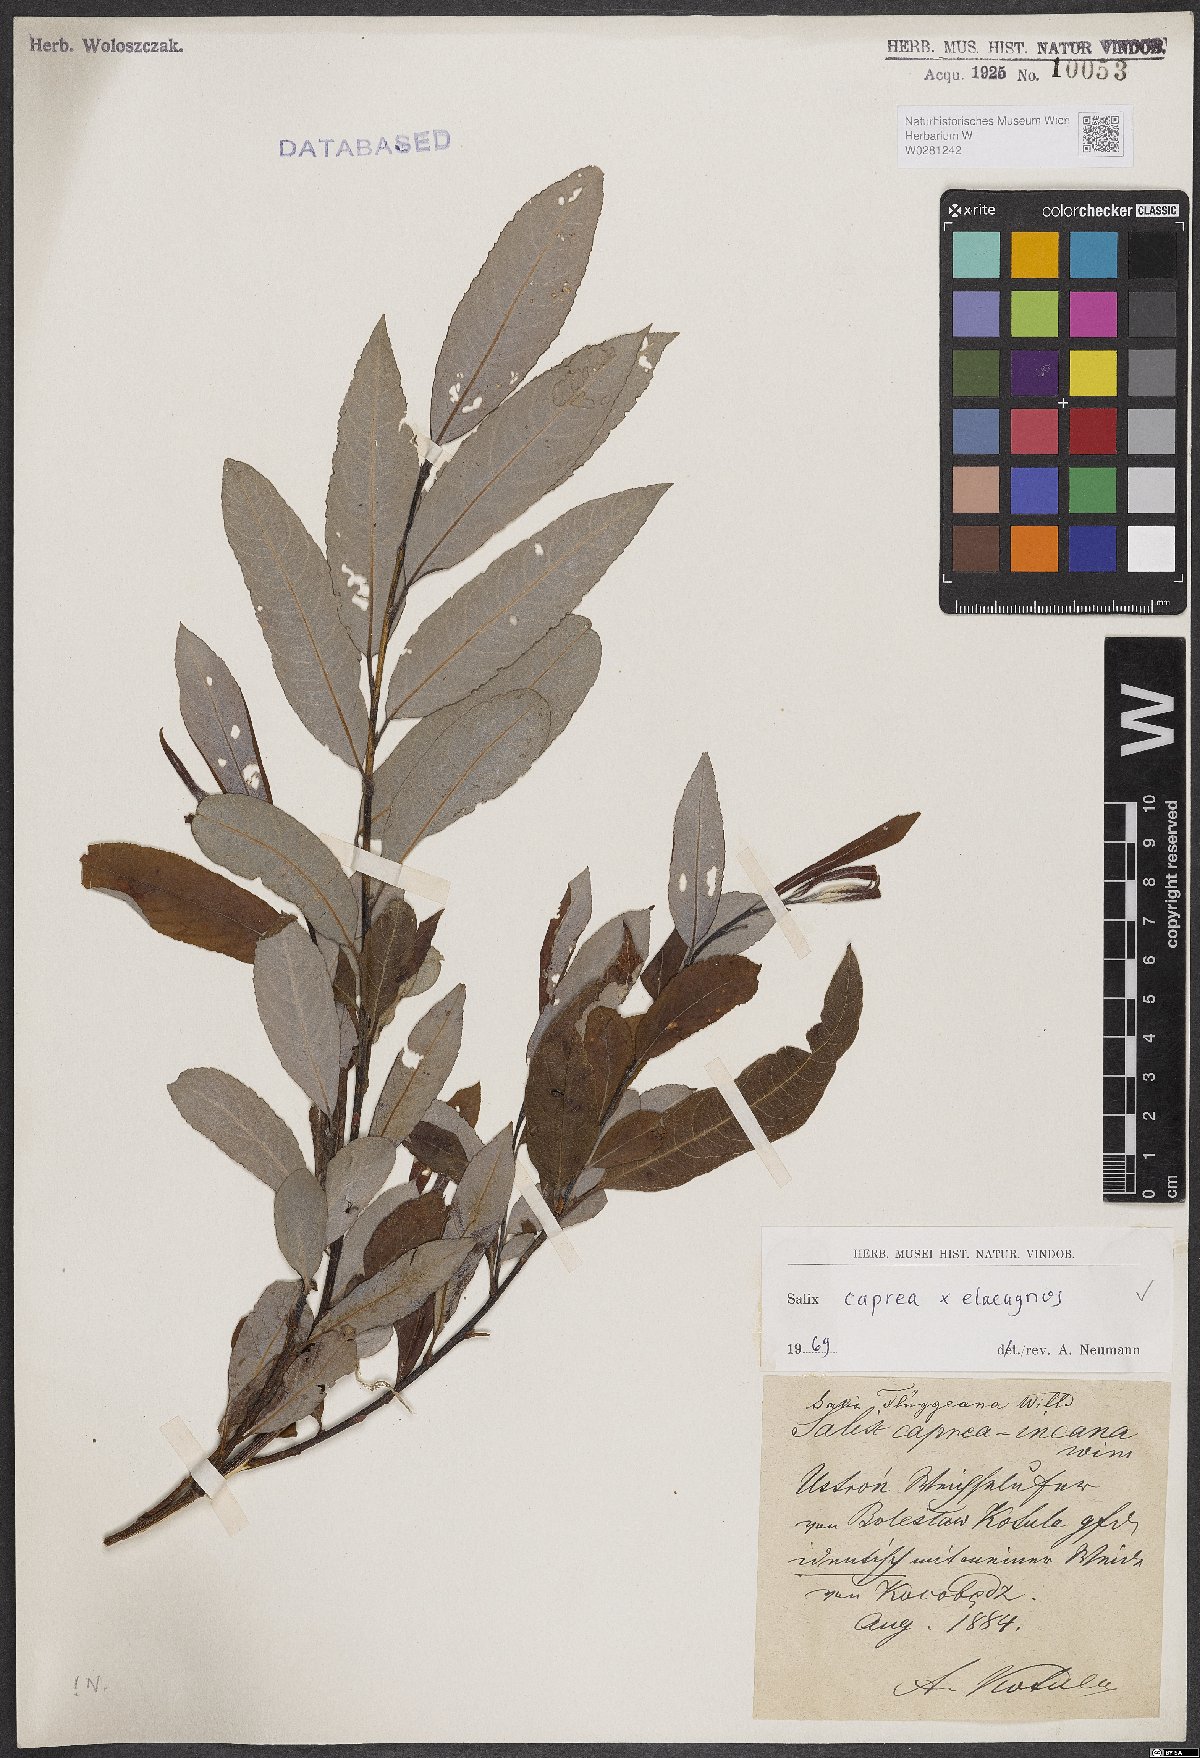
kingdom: Plantae
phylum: Tracheophyta
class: Magnoliopsida
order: Malpighiales
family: Salicaceae
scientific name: Salicaceae
